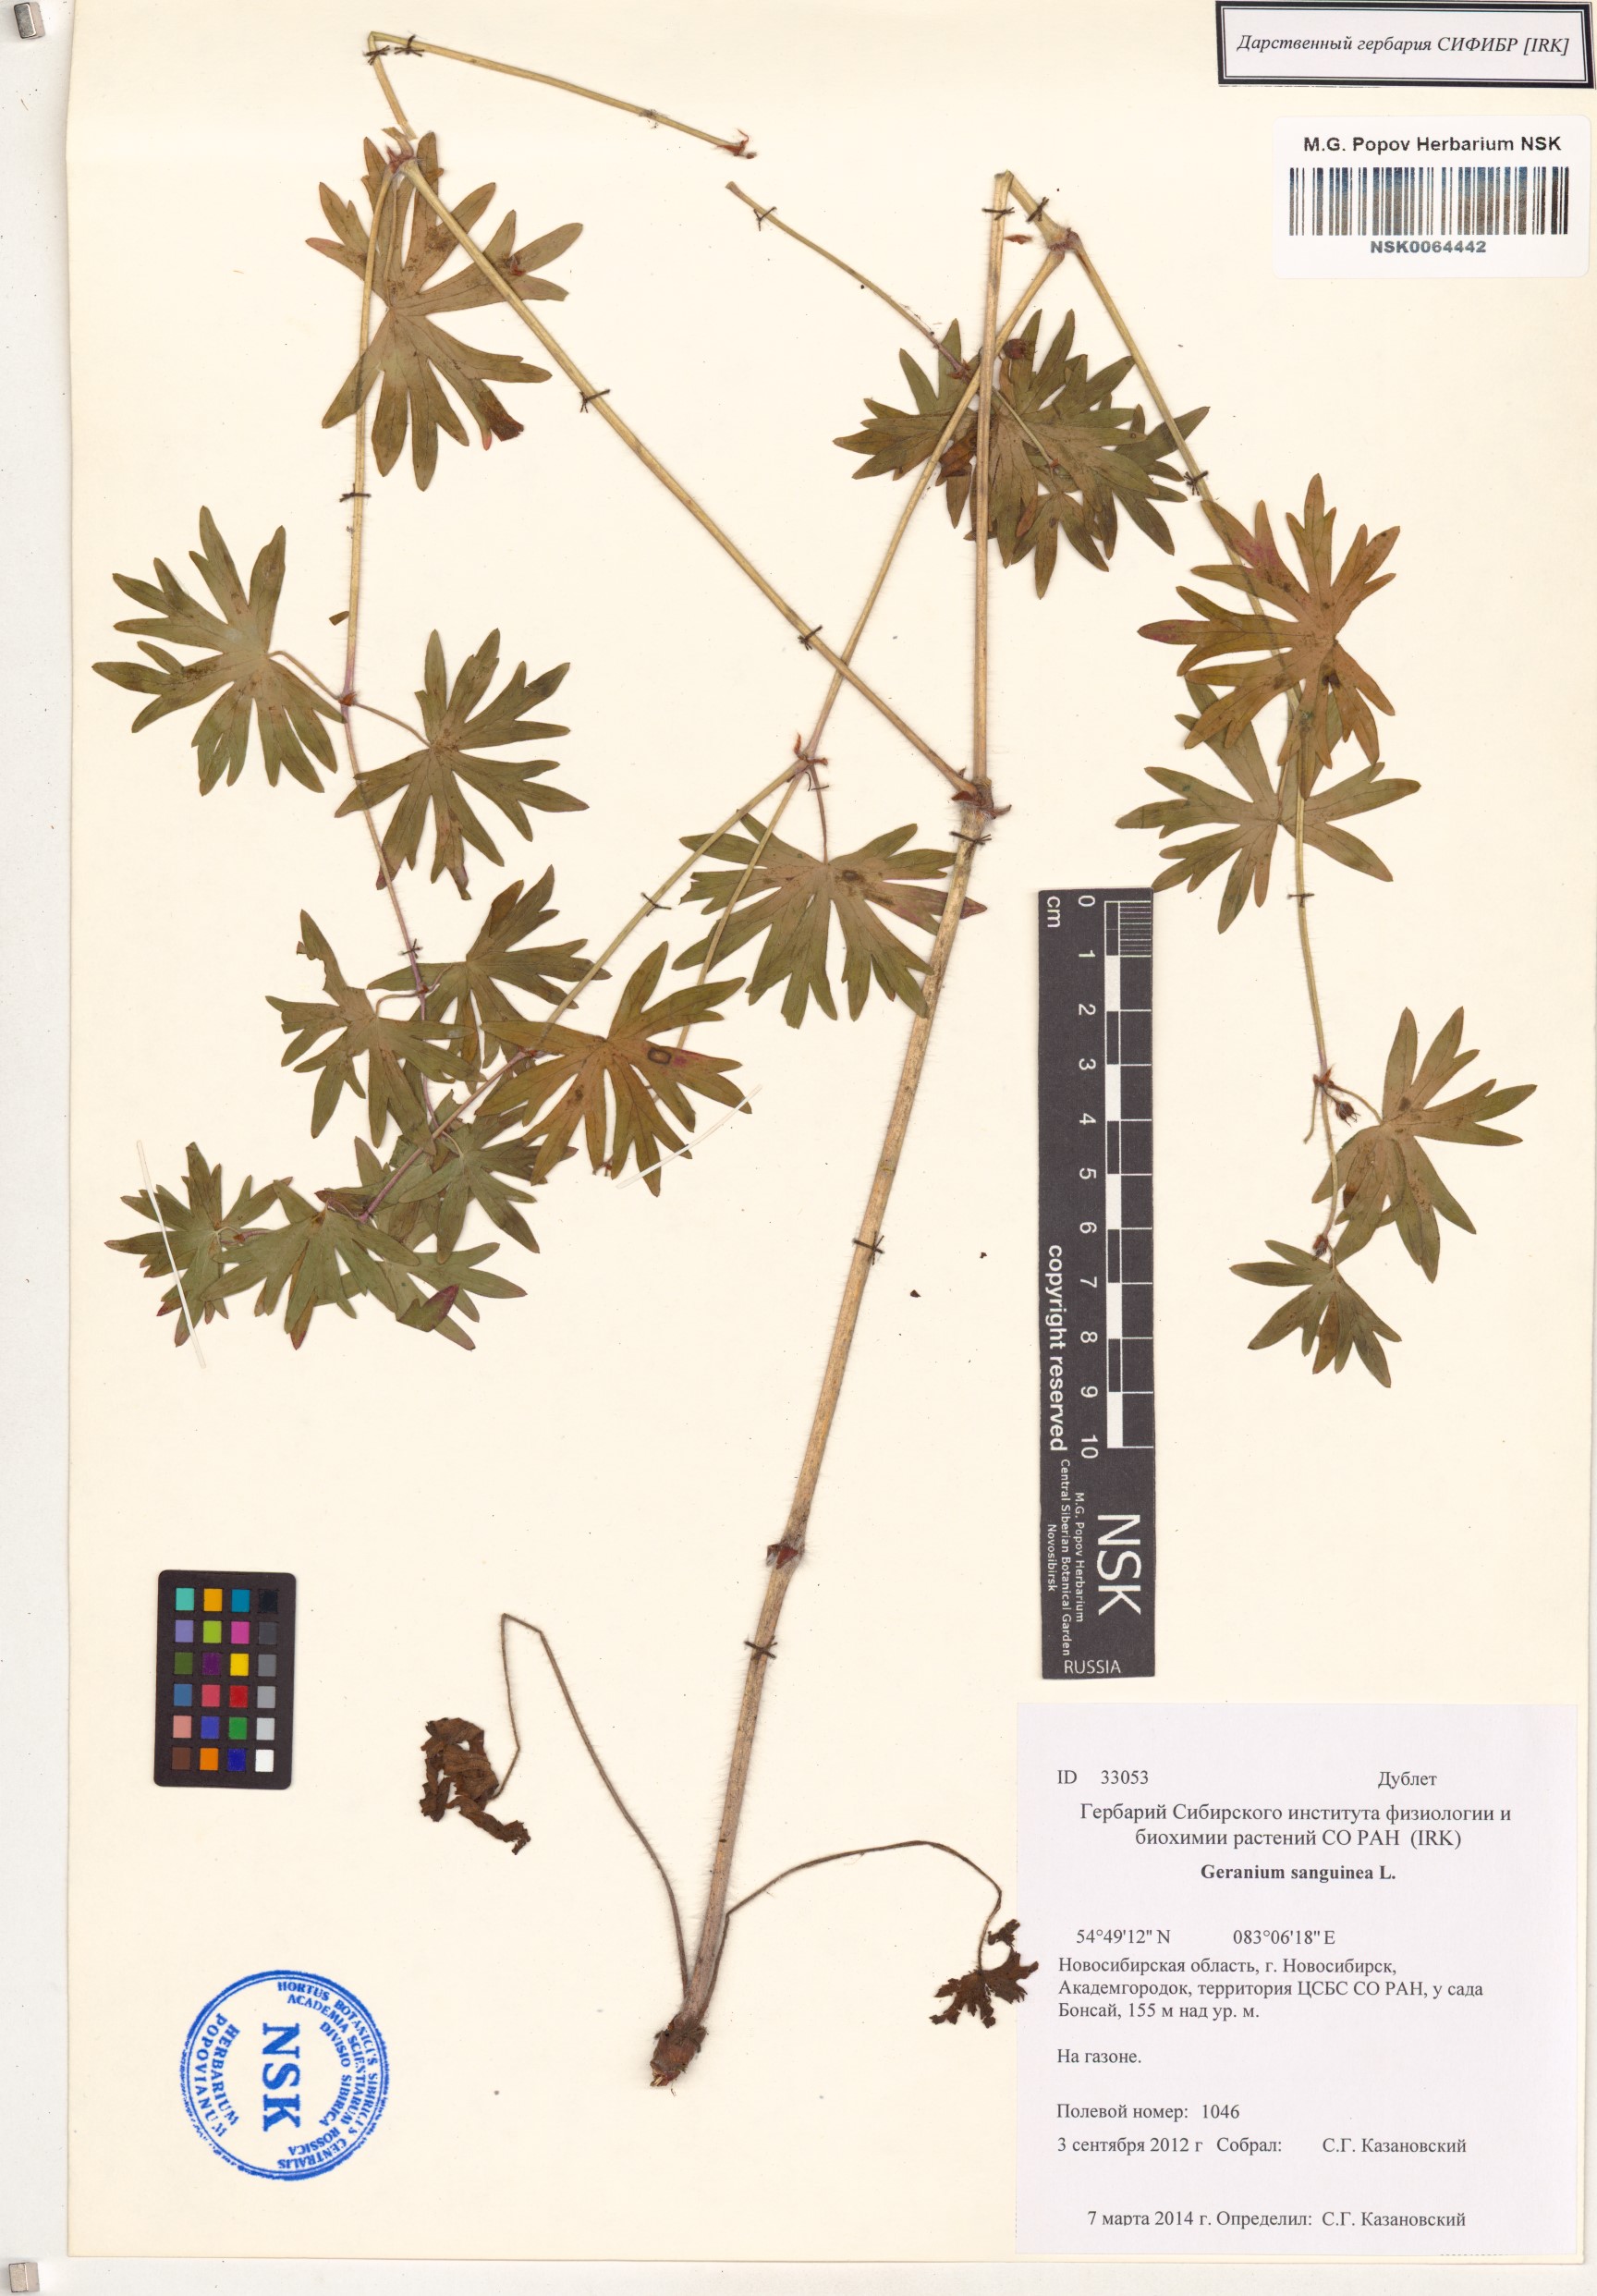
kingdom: Plantae
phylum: Tracheophyta
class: Magnoliopsida
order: Geraniales
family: Geraniaceae
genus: Geranium
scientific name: Geranium sanguineum
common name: Bloody crane's-bill
